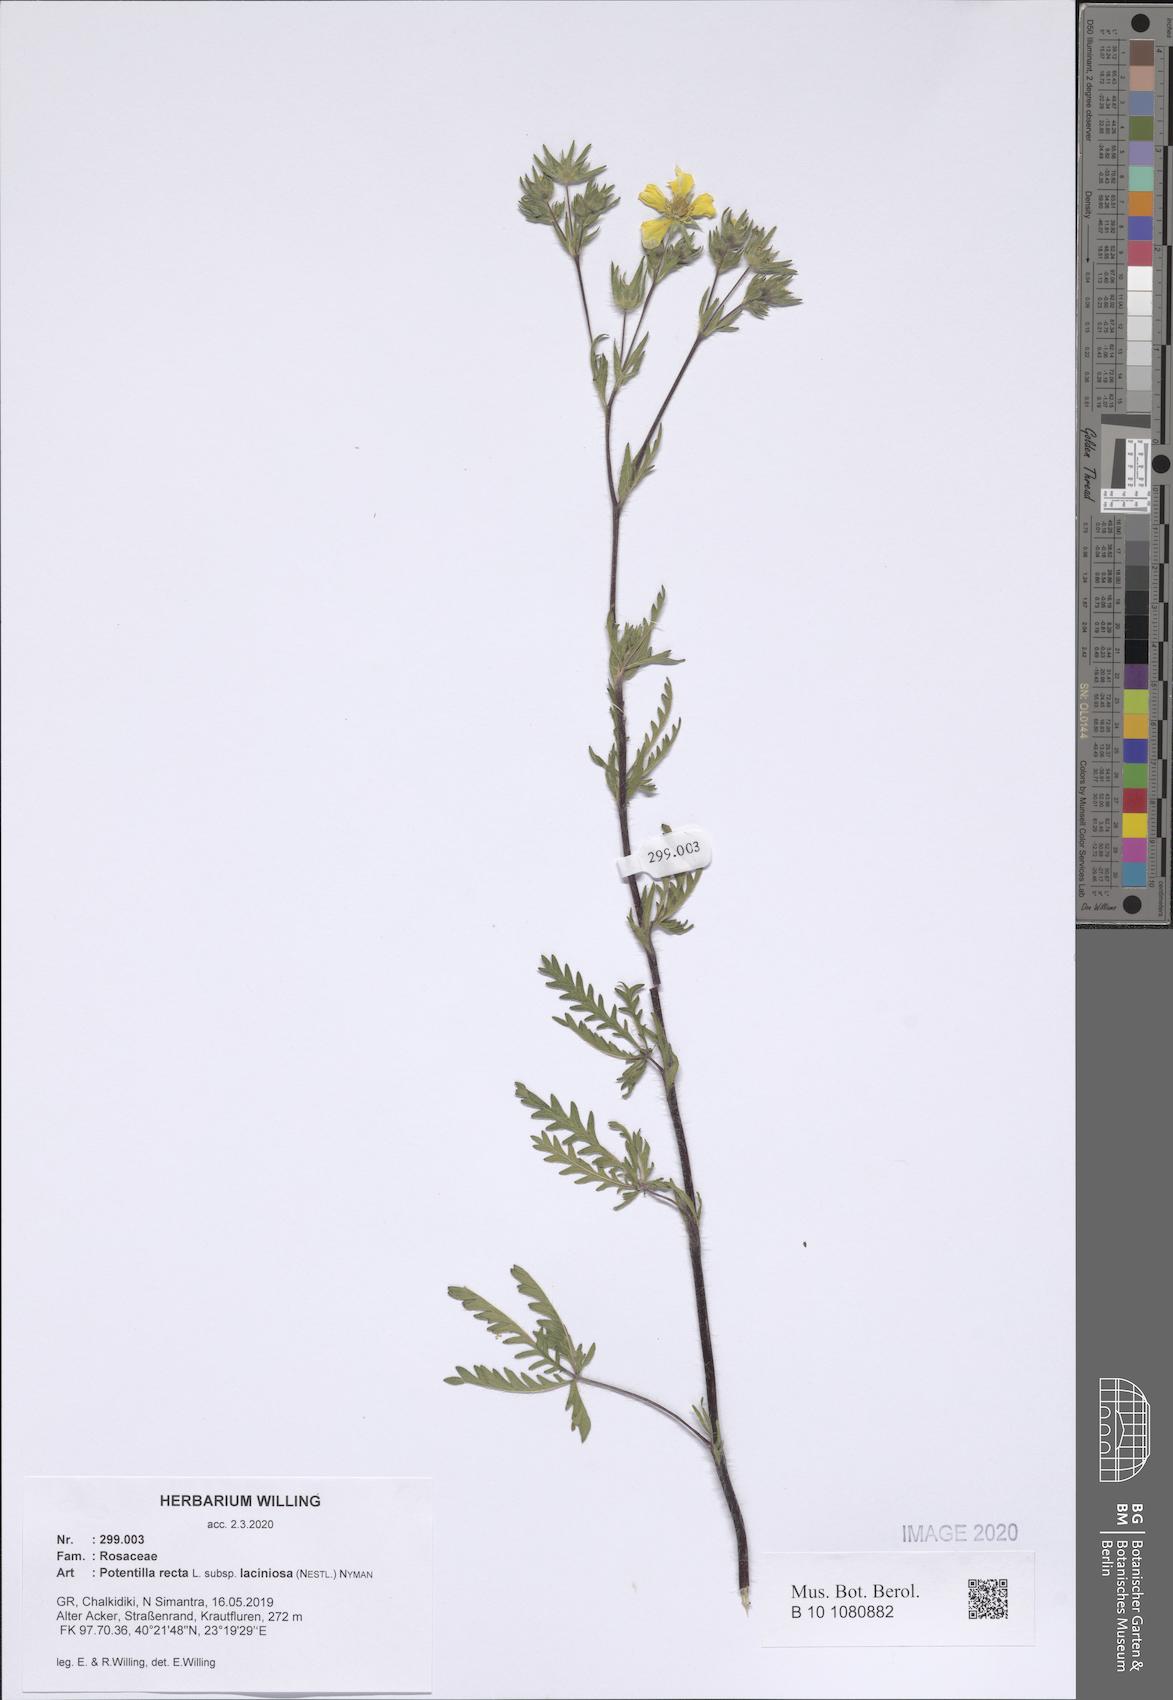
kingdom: Plantae
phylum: Tracheophyta
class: Magnoliopsida
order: Rosales
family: Rosaceae
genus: Potentilla
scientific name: Potentilla recta
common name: Sulphur cinquefoil
